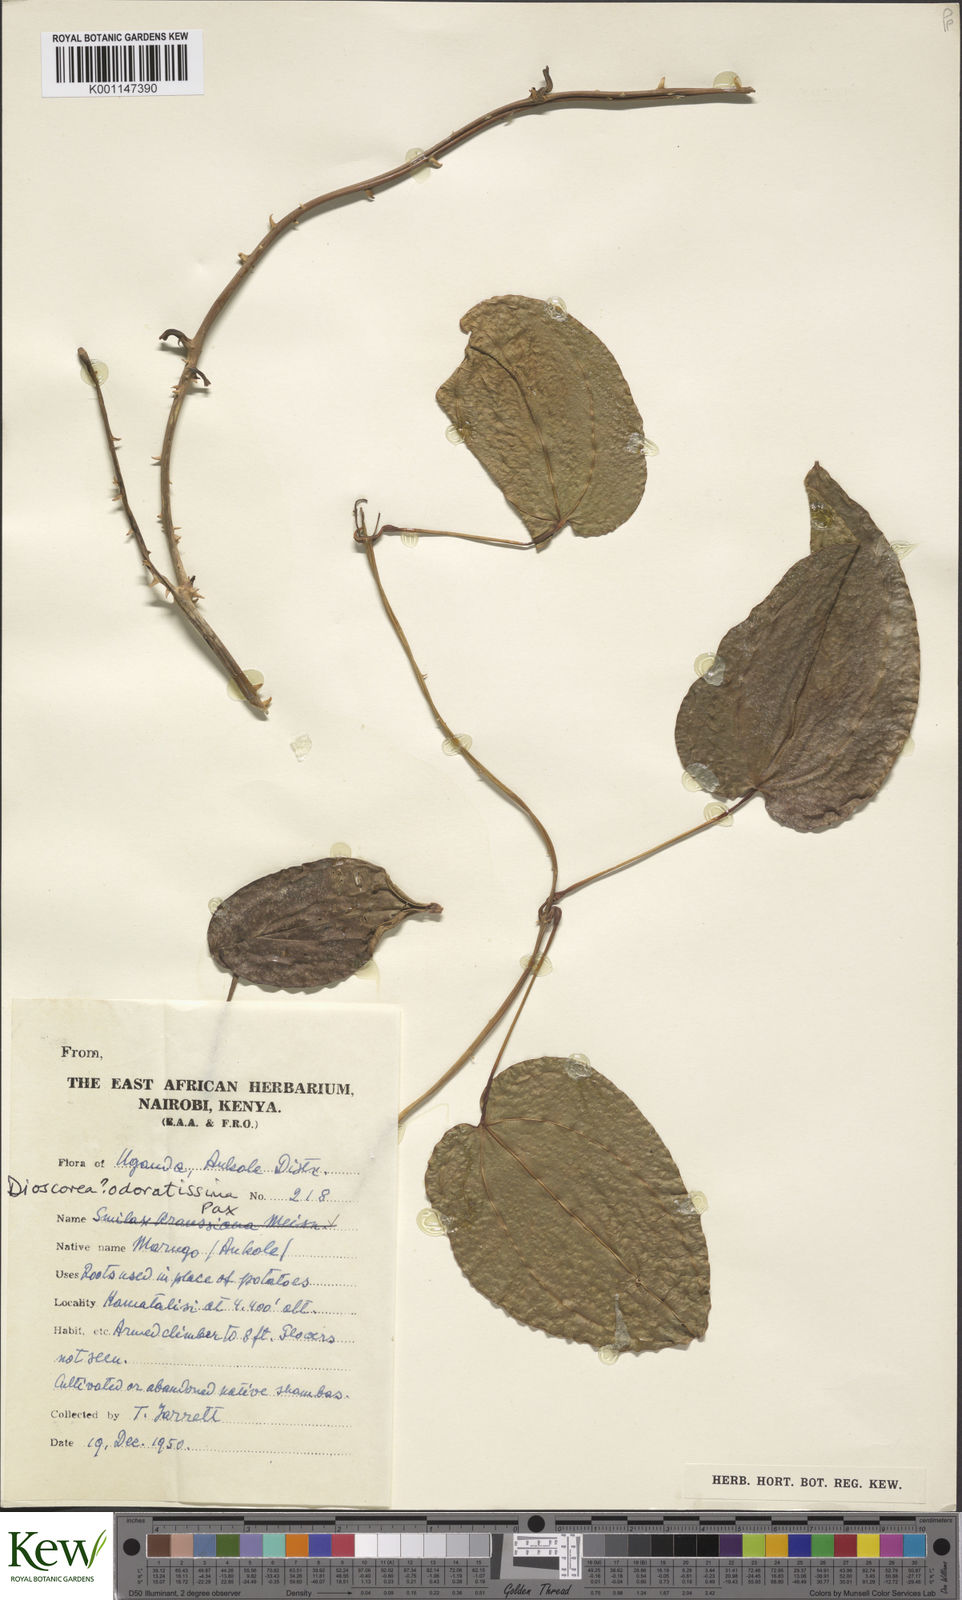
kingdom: Plantae
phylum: Tracheophyta
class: Liliopsida
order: Dioscoreales
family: Dioscoreaceae
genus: Dioscorea
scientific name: Dioscorea praehensilis
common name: Bush yam
